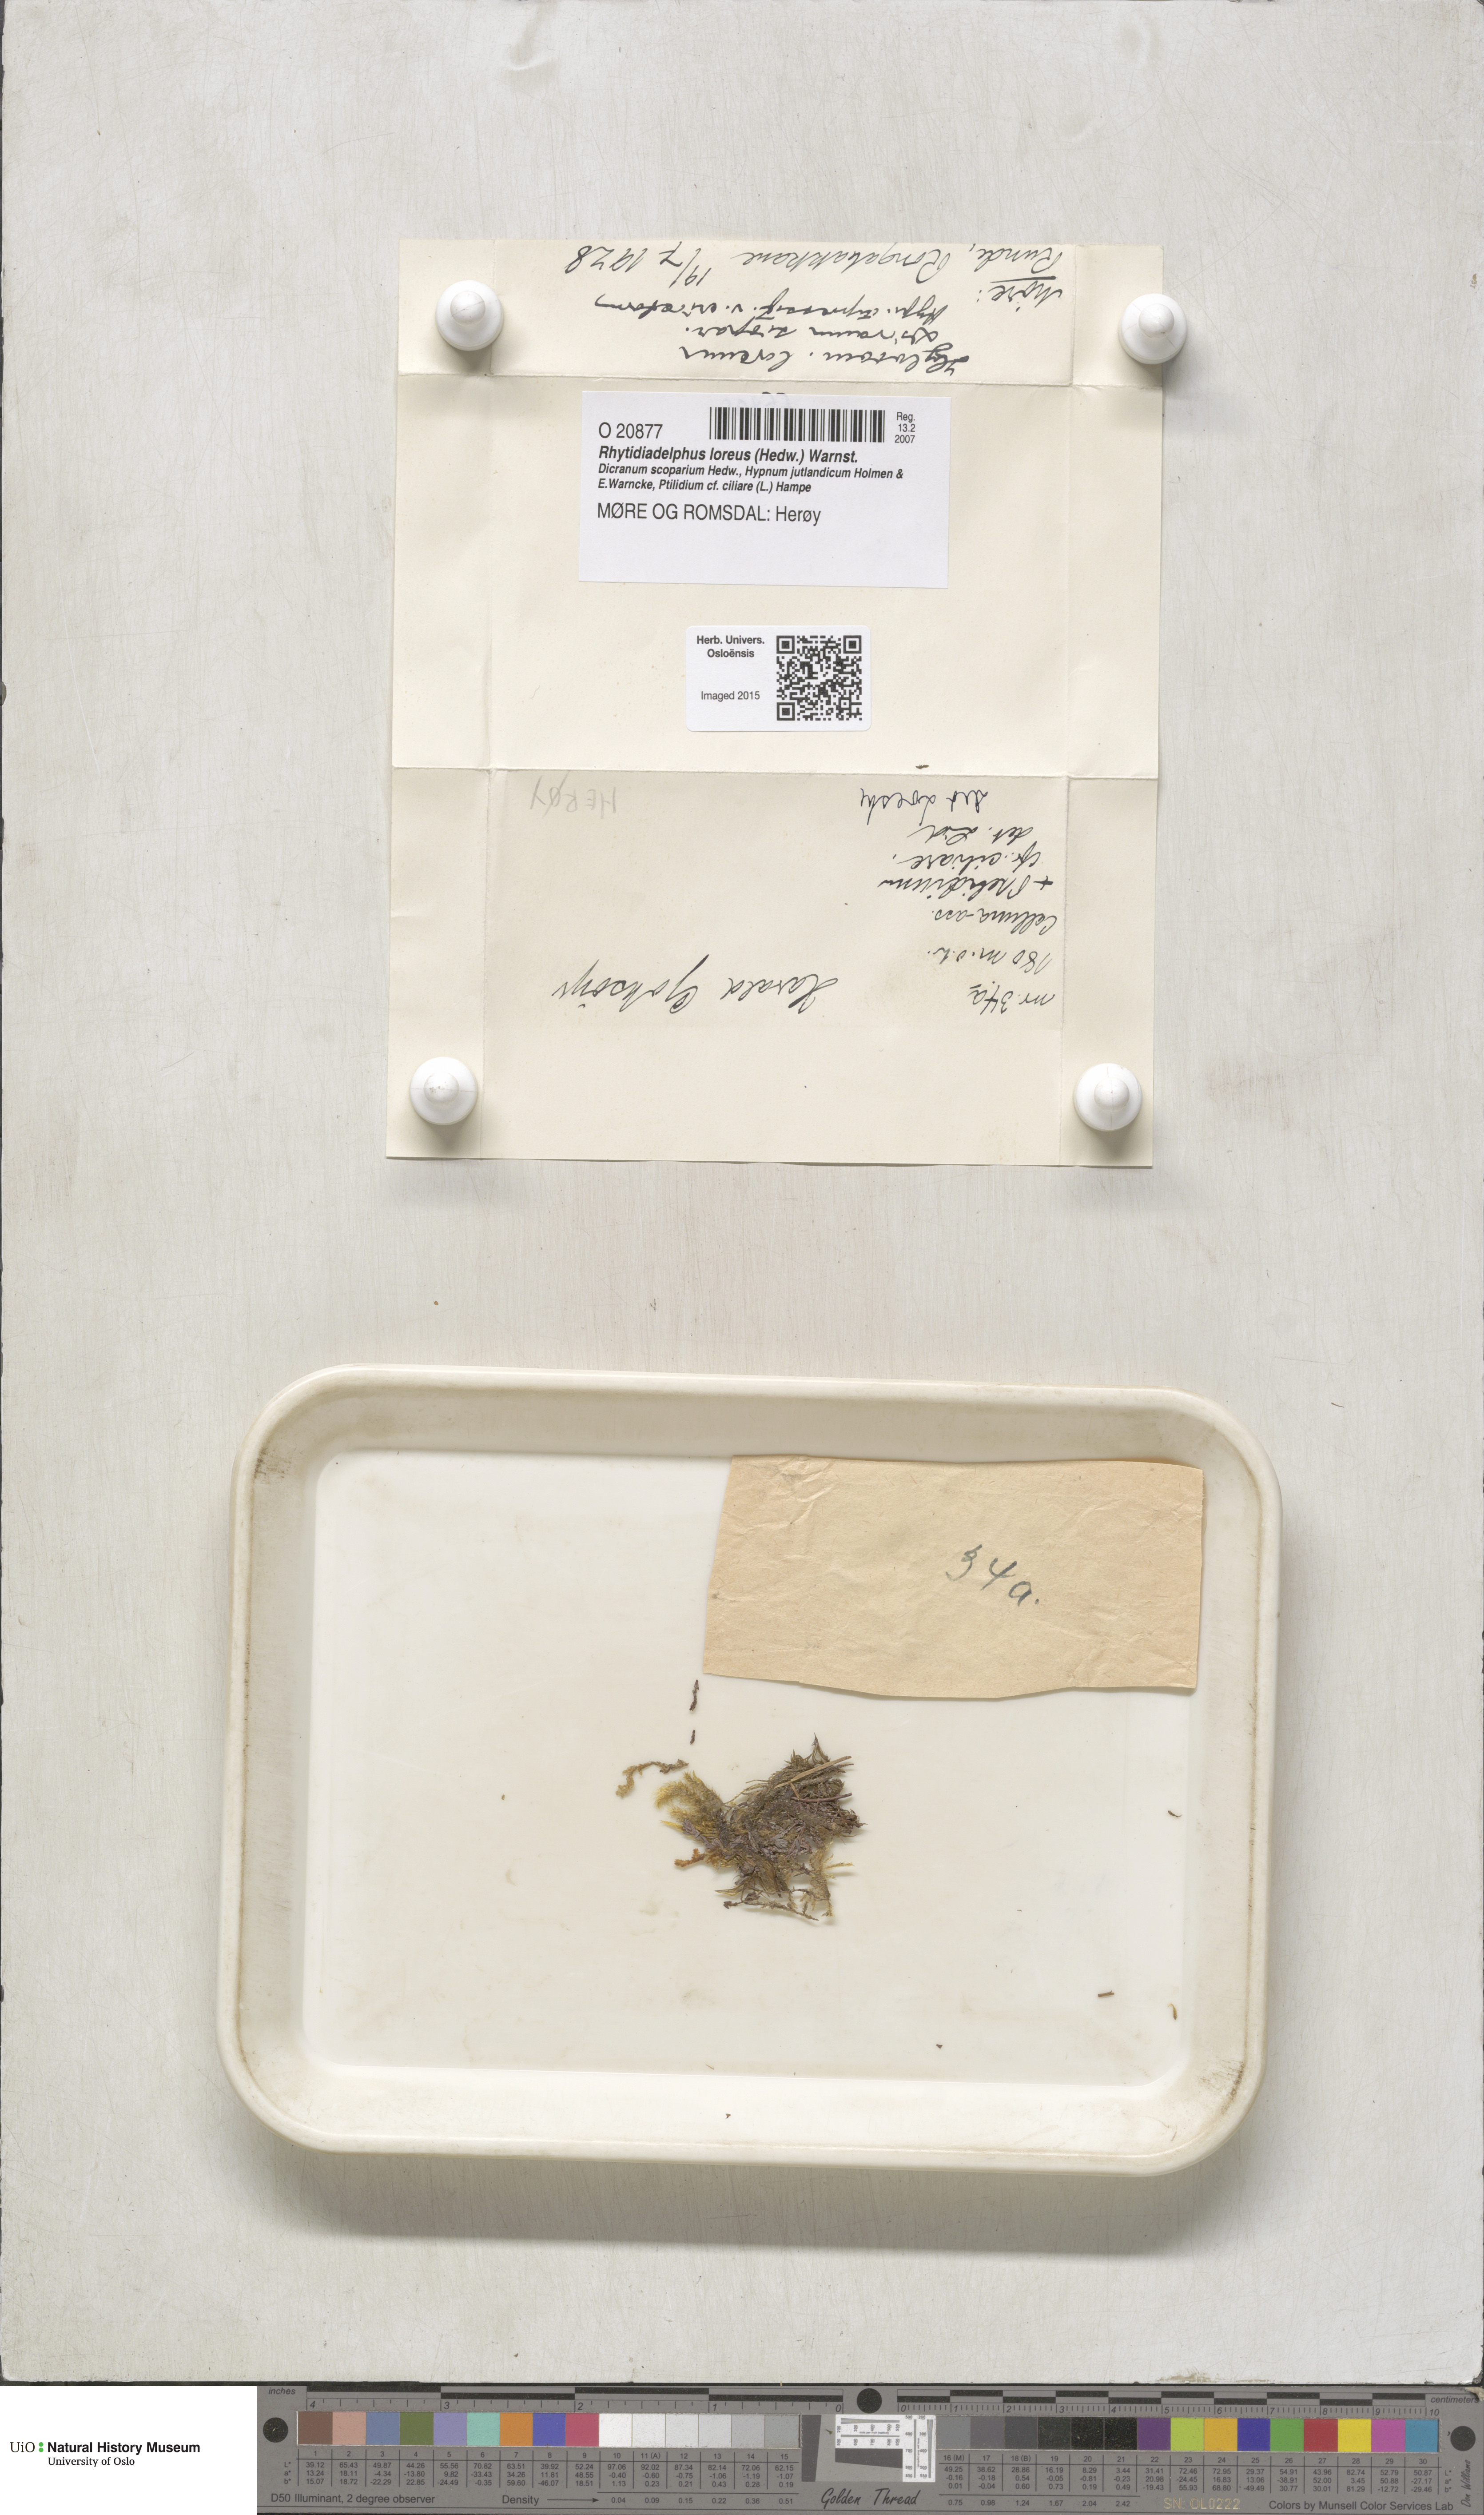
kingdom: Plantae
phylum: Bryophyta
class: Bryopsida
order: Hypnales
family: Hylocomiaceae
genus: Rhytidiadelphus
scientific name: Rhytidiadelphus loreus
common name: Lanky moss
